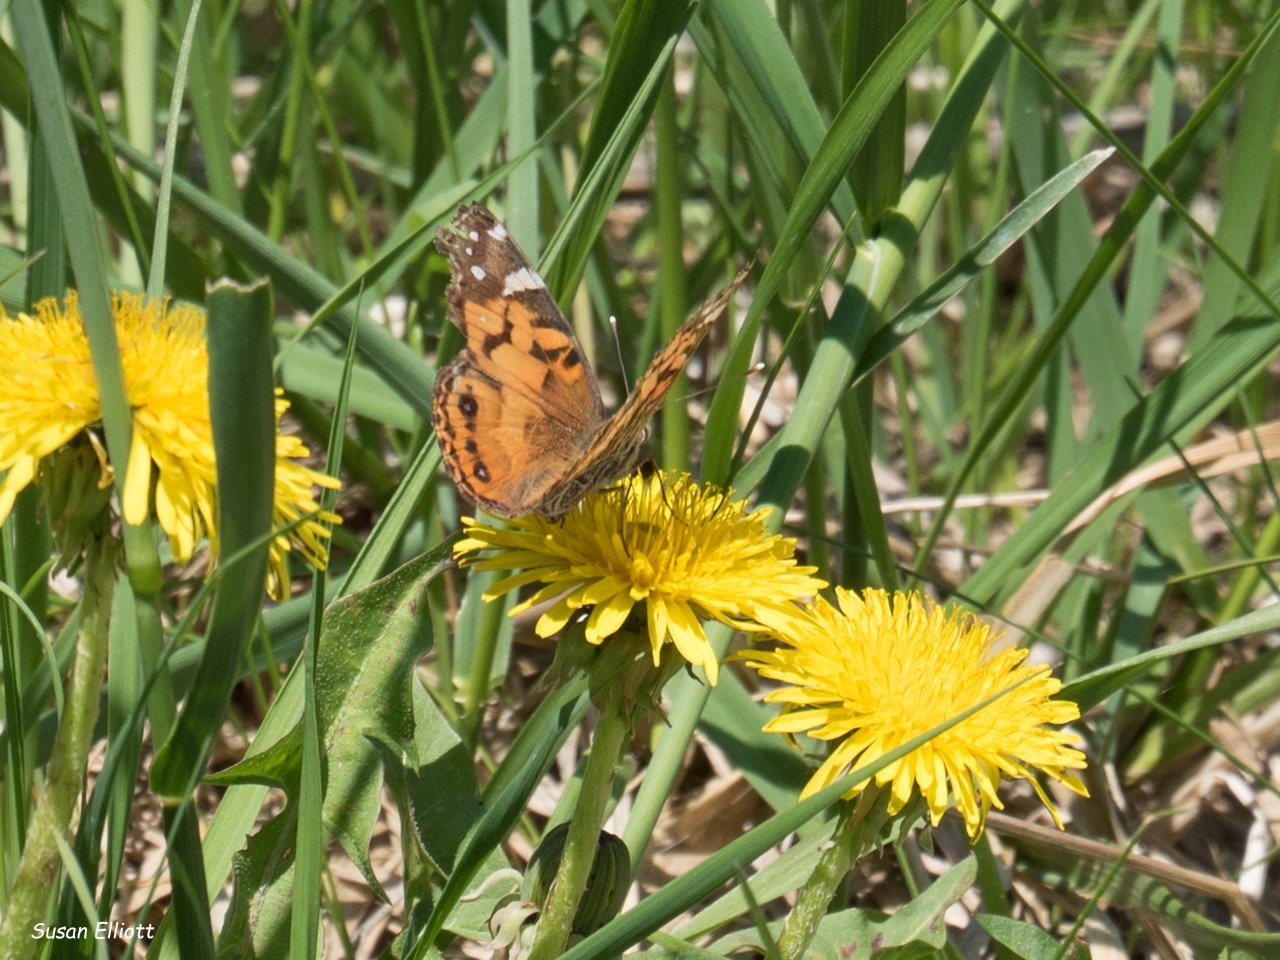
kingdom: Animalia
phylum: Arthropoda
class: Insecta
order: Lepidoptera
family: Nymphalidae
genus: Vanessa
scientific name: Vanessa virginiensis
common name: American Lady
